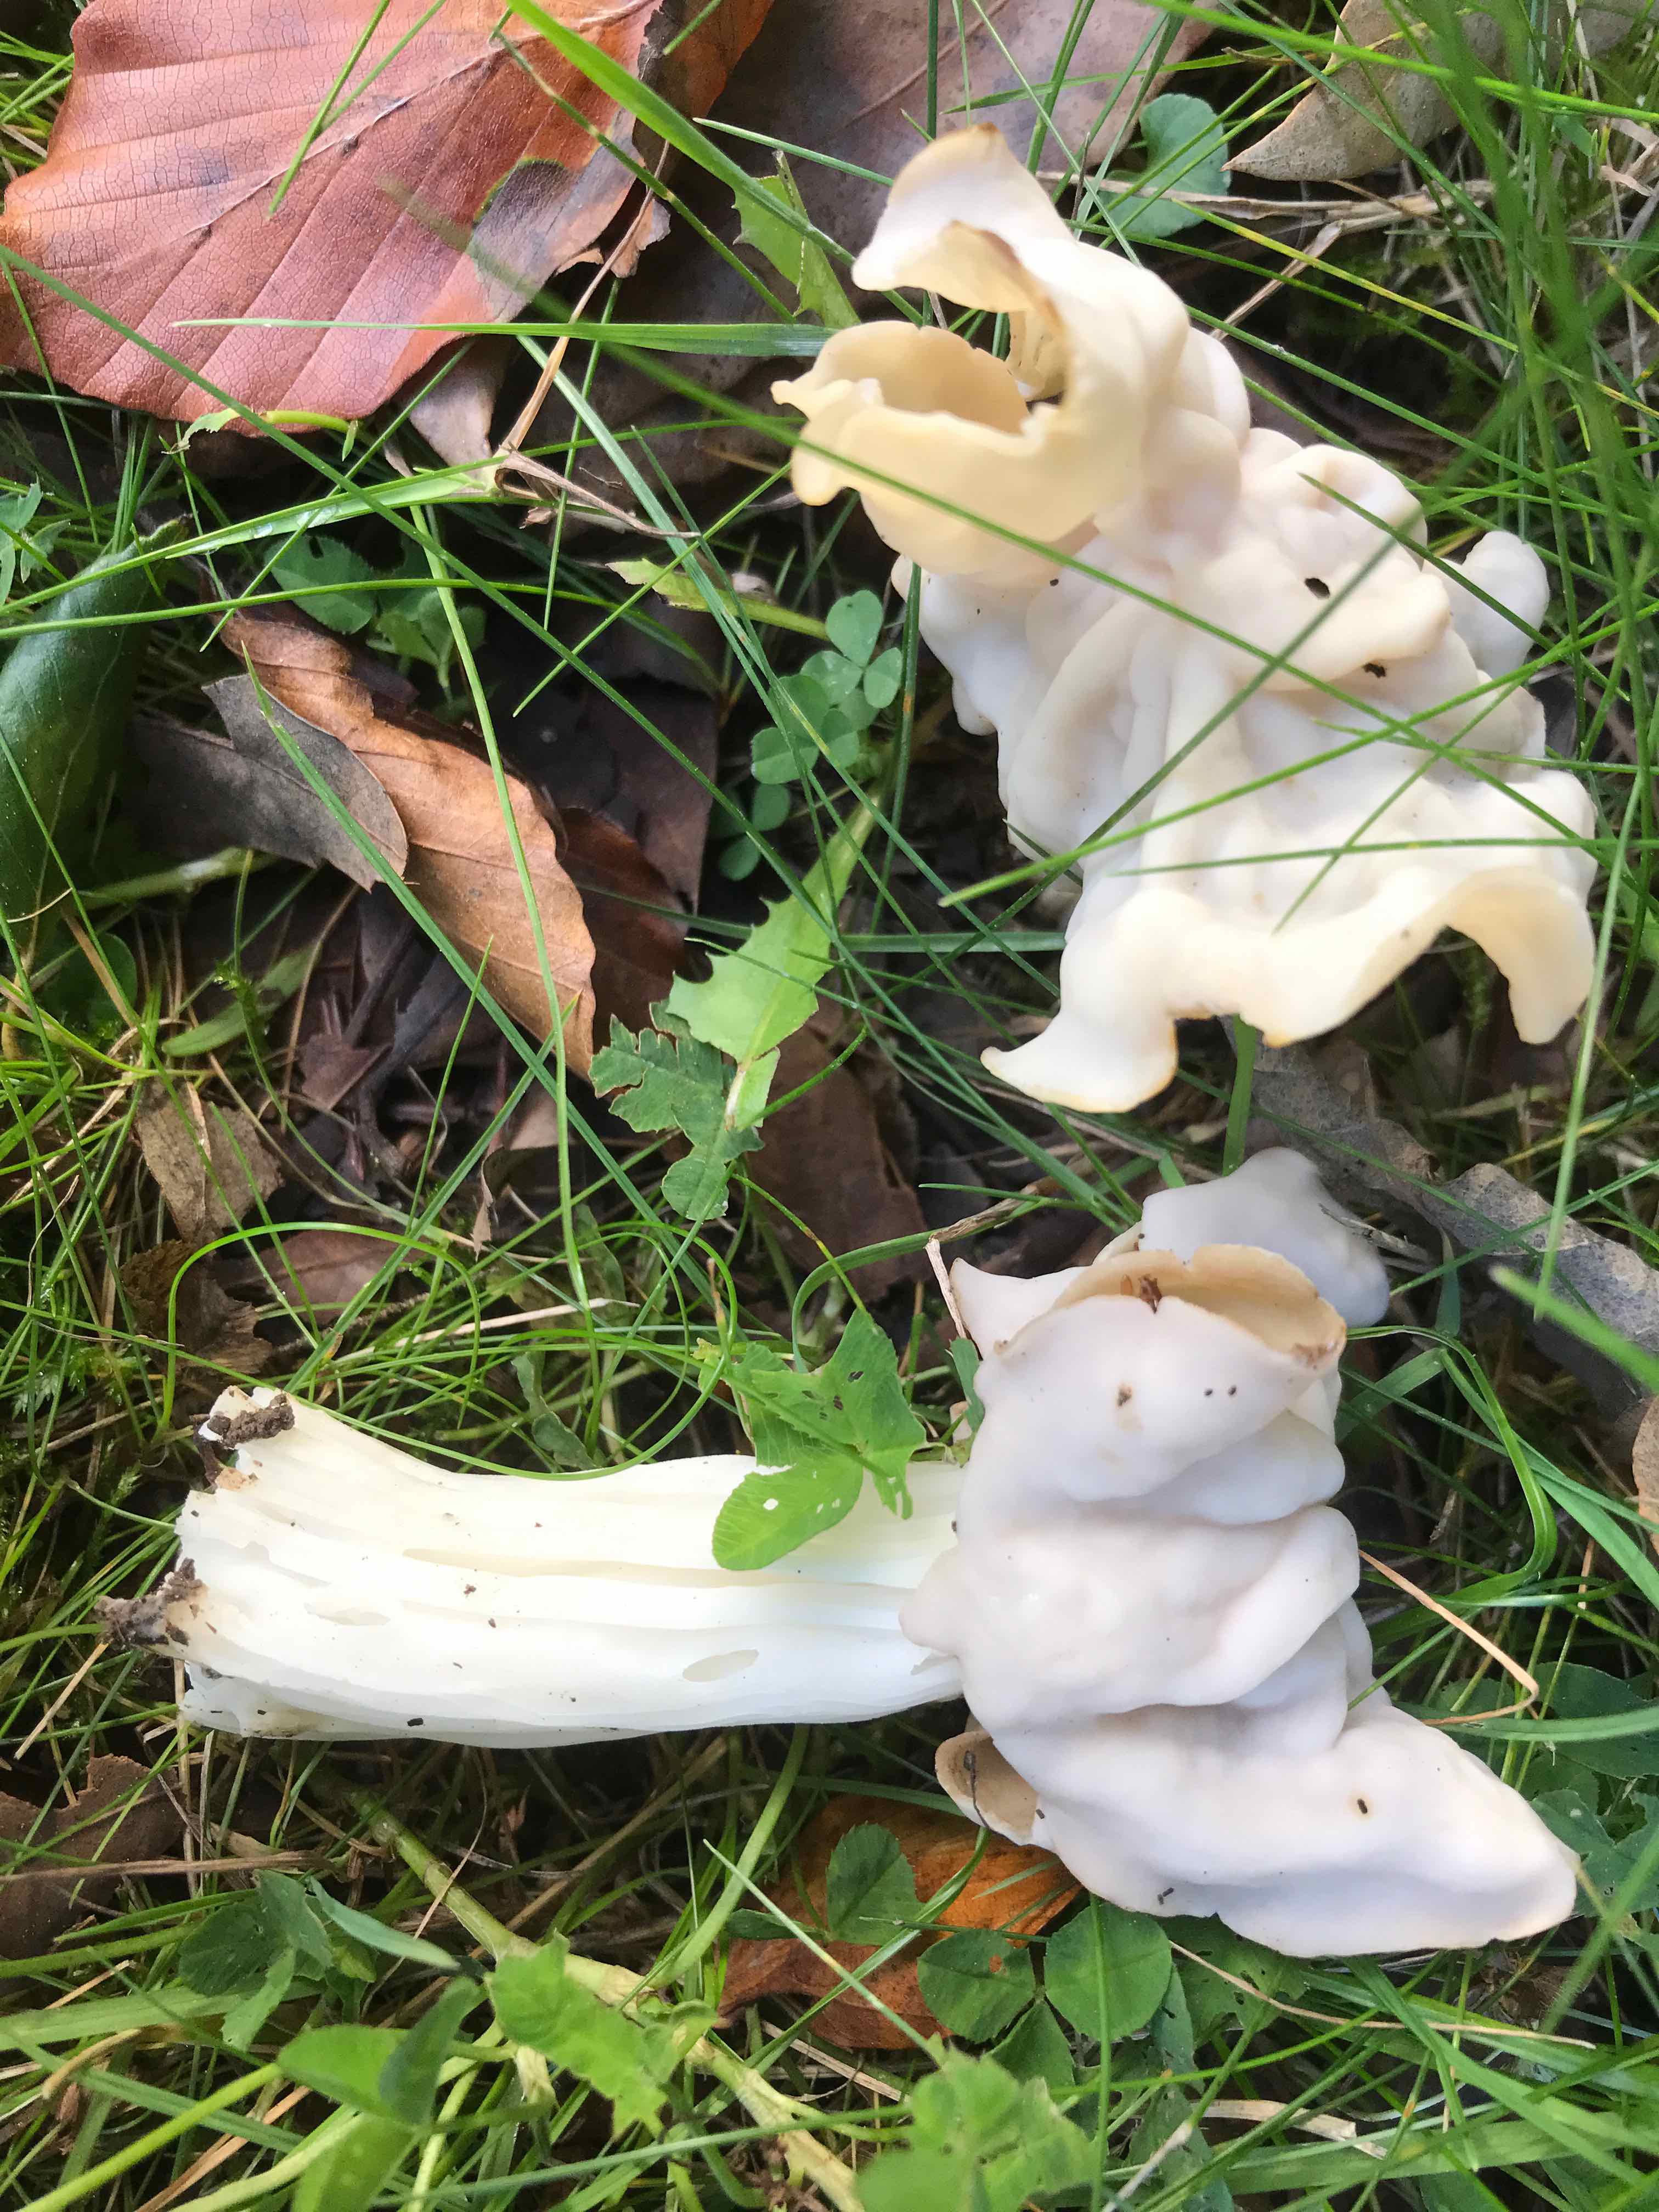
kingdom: Fungi
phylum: Ascomycota
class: Pezizomycetes
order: Pezizales
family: Helvellaceae
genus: Helvella
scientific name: Helvella crispa
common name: kruset foldhat
